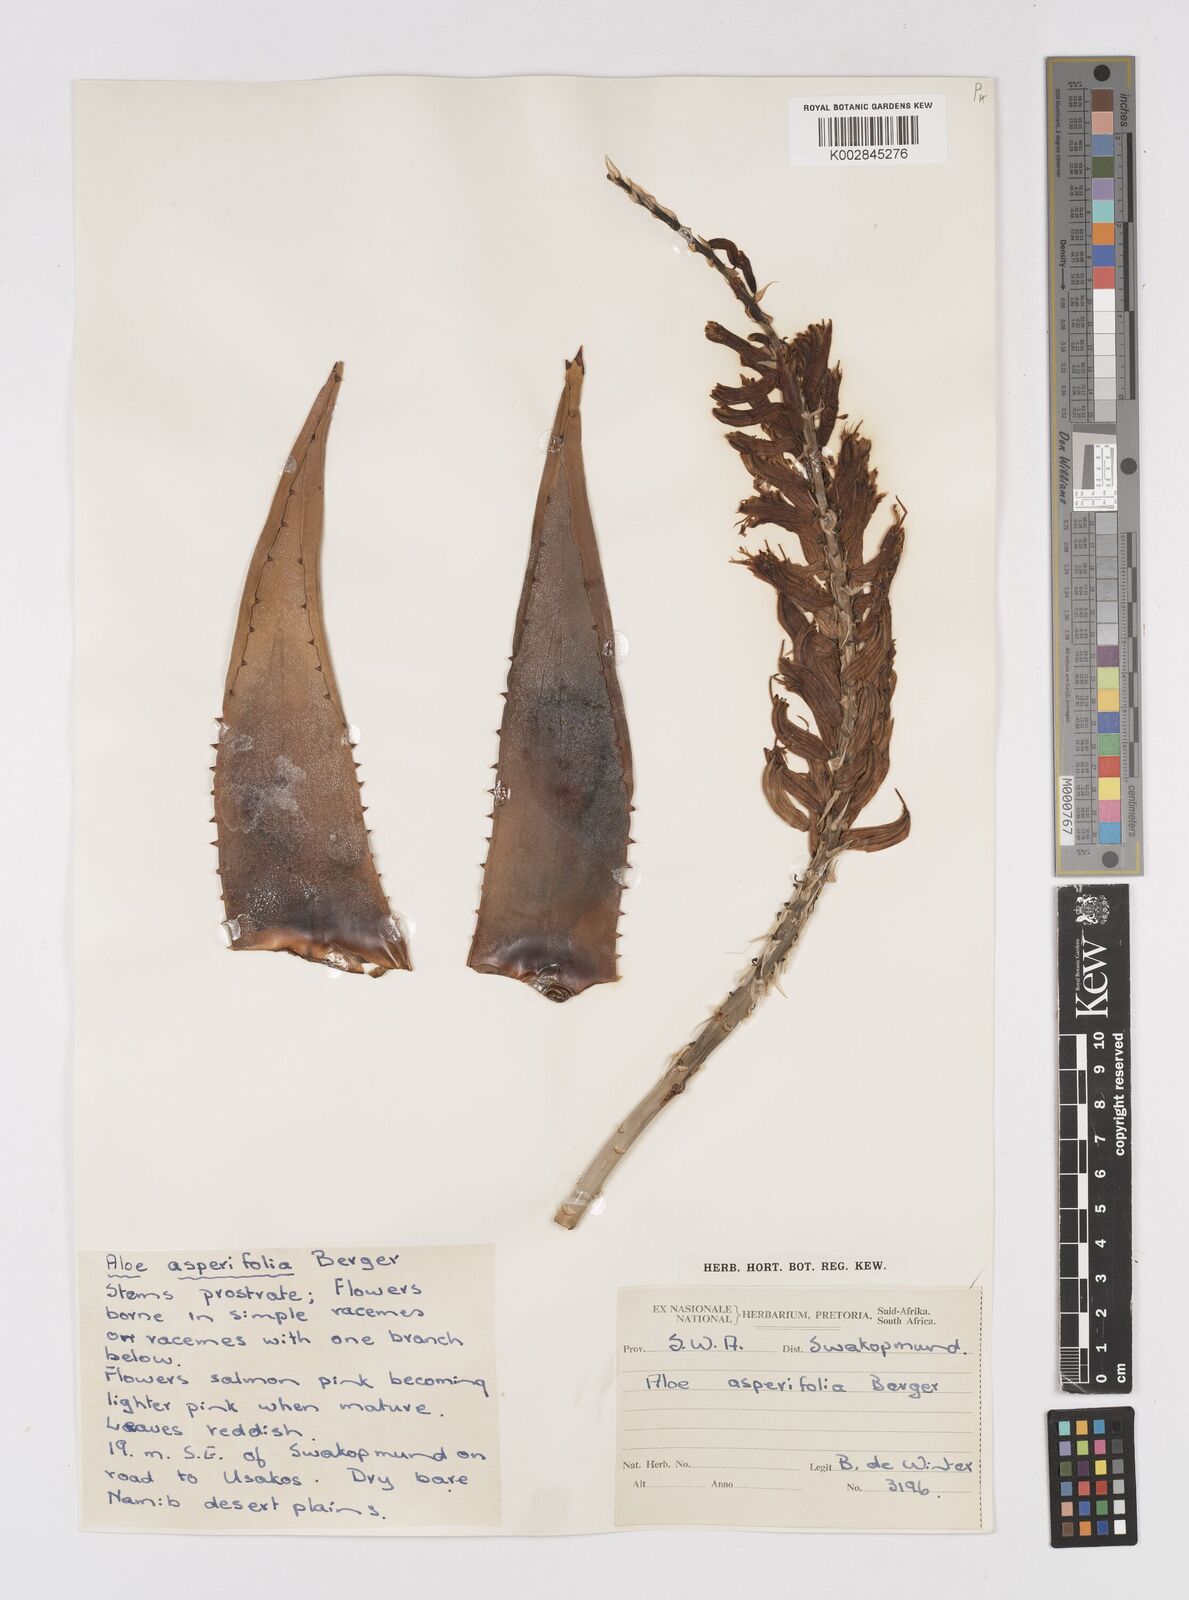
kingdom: Plantae
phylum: Tracheophyta
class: Liliopsida
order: Asparagales
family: Asphodelaceae
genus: Aloe
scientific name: Aloe asperifolia
